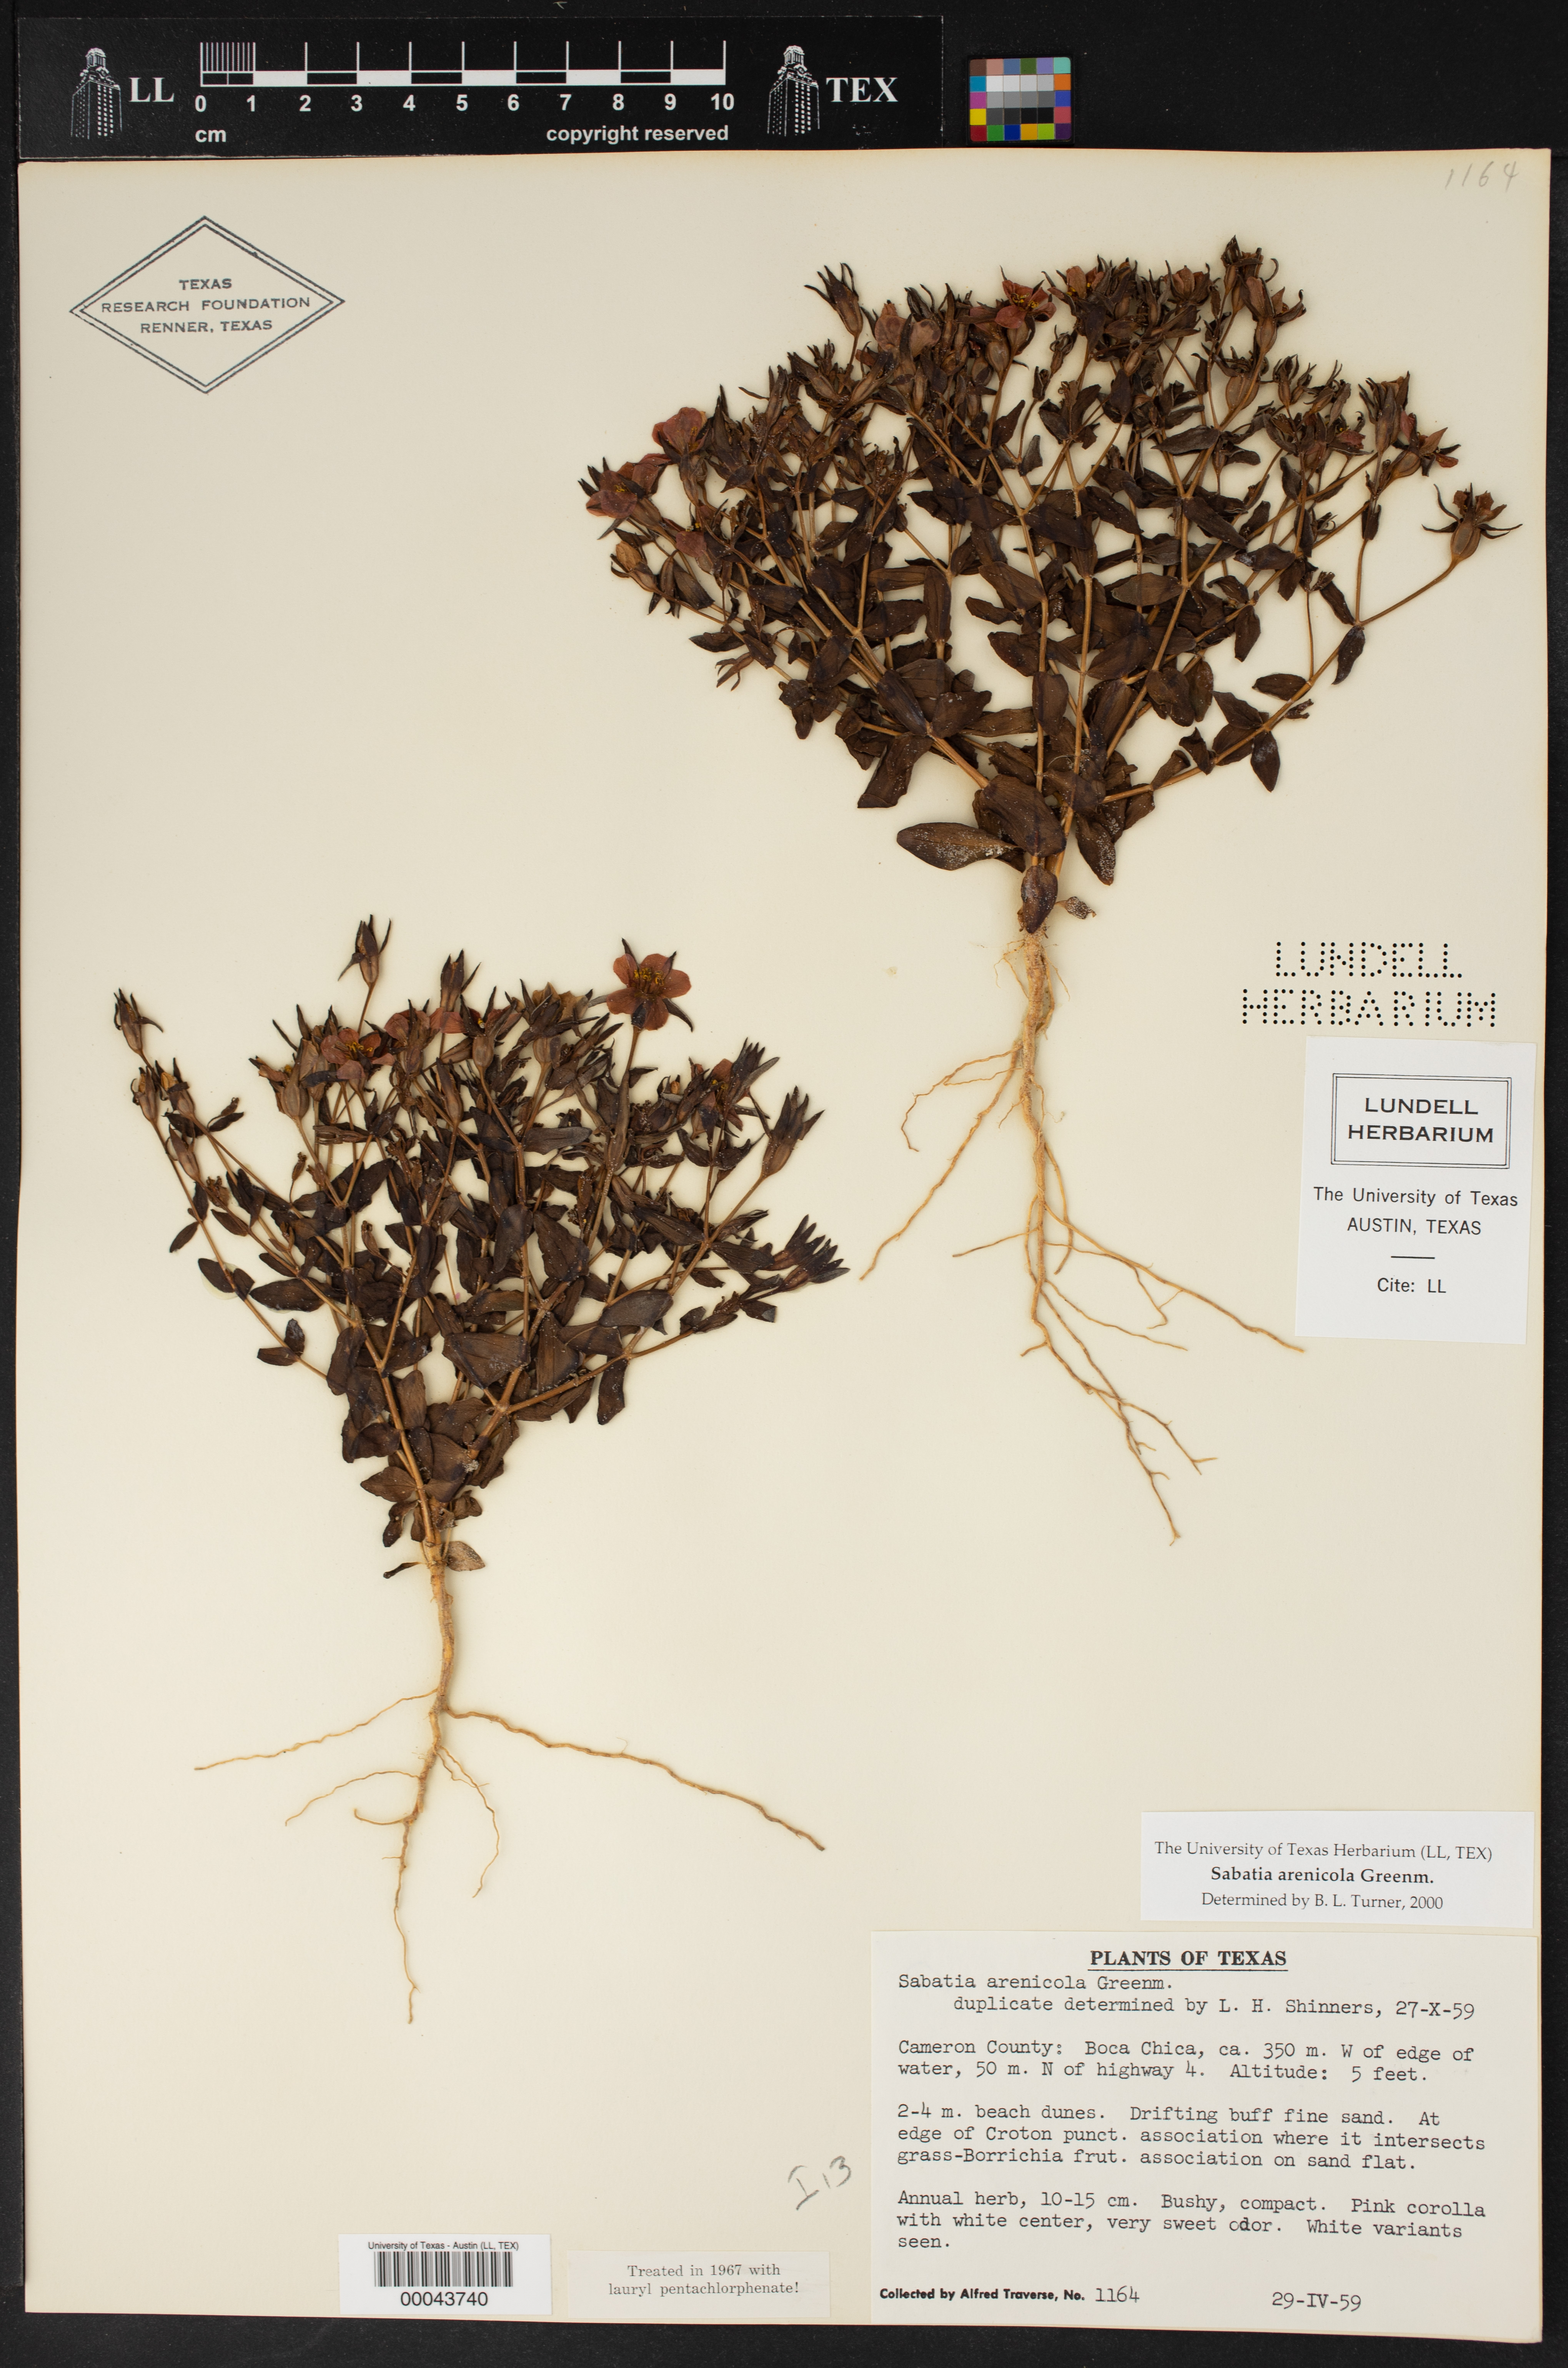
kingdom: Plantae
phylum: Tracheophyta
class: Magnoliopsida
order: Gentianales
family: Gentianaceae
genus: Sabatia
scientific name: Sabatia arenicola
